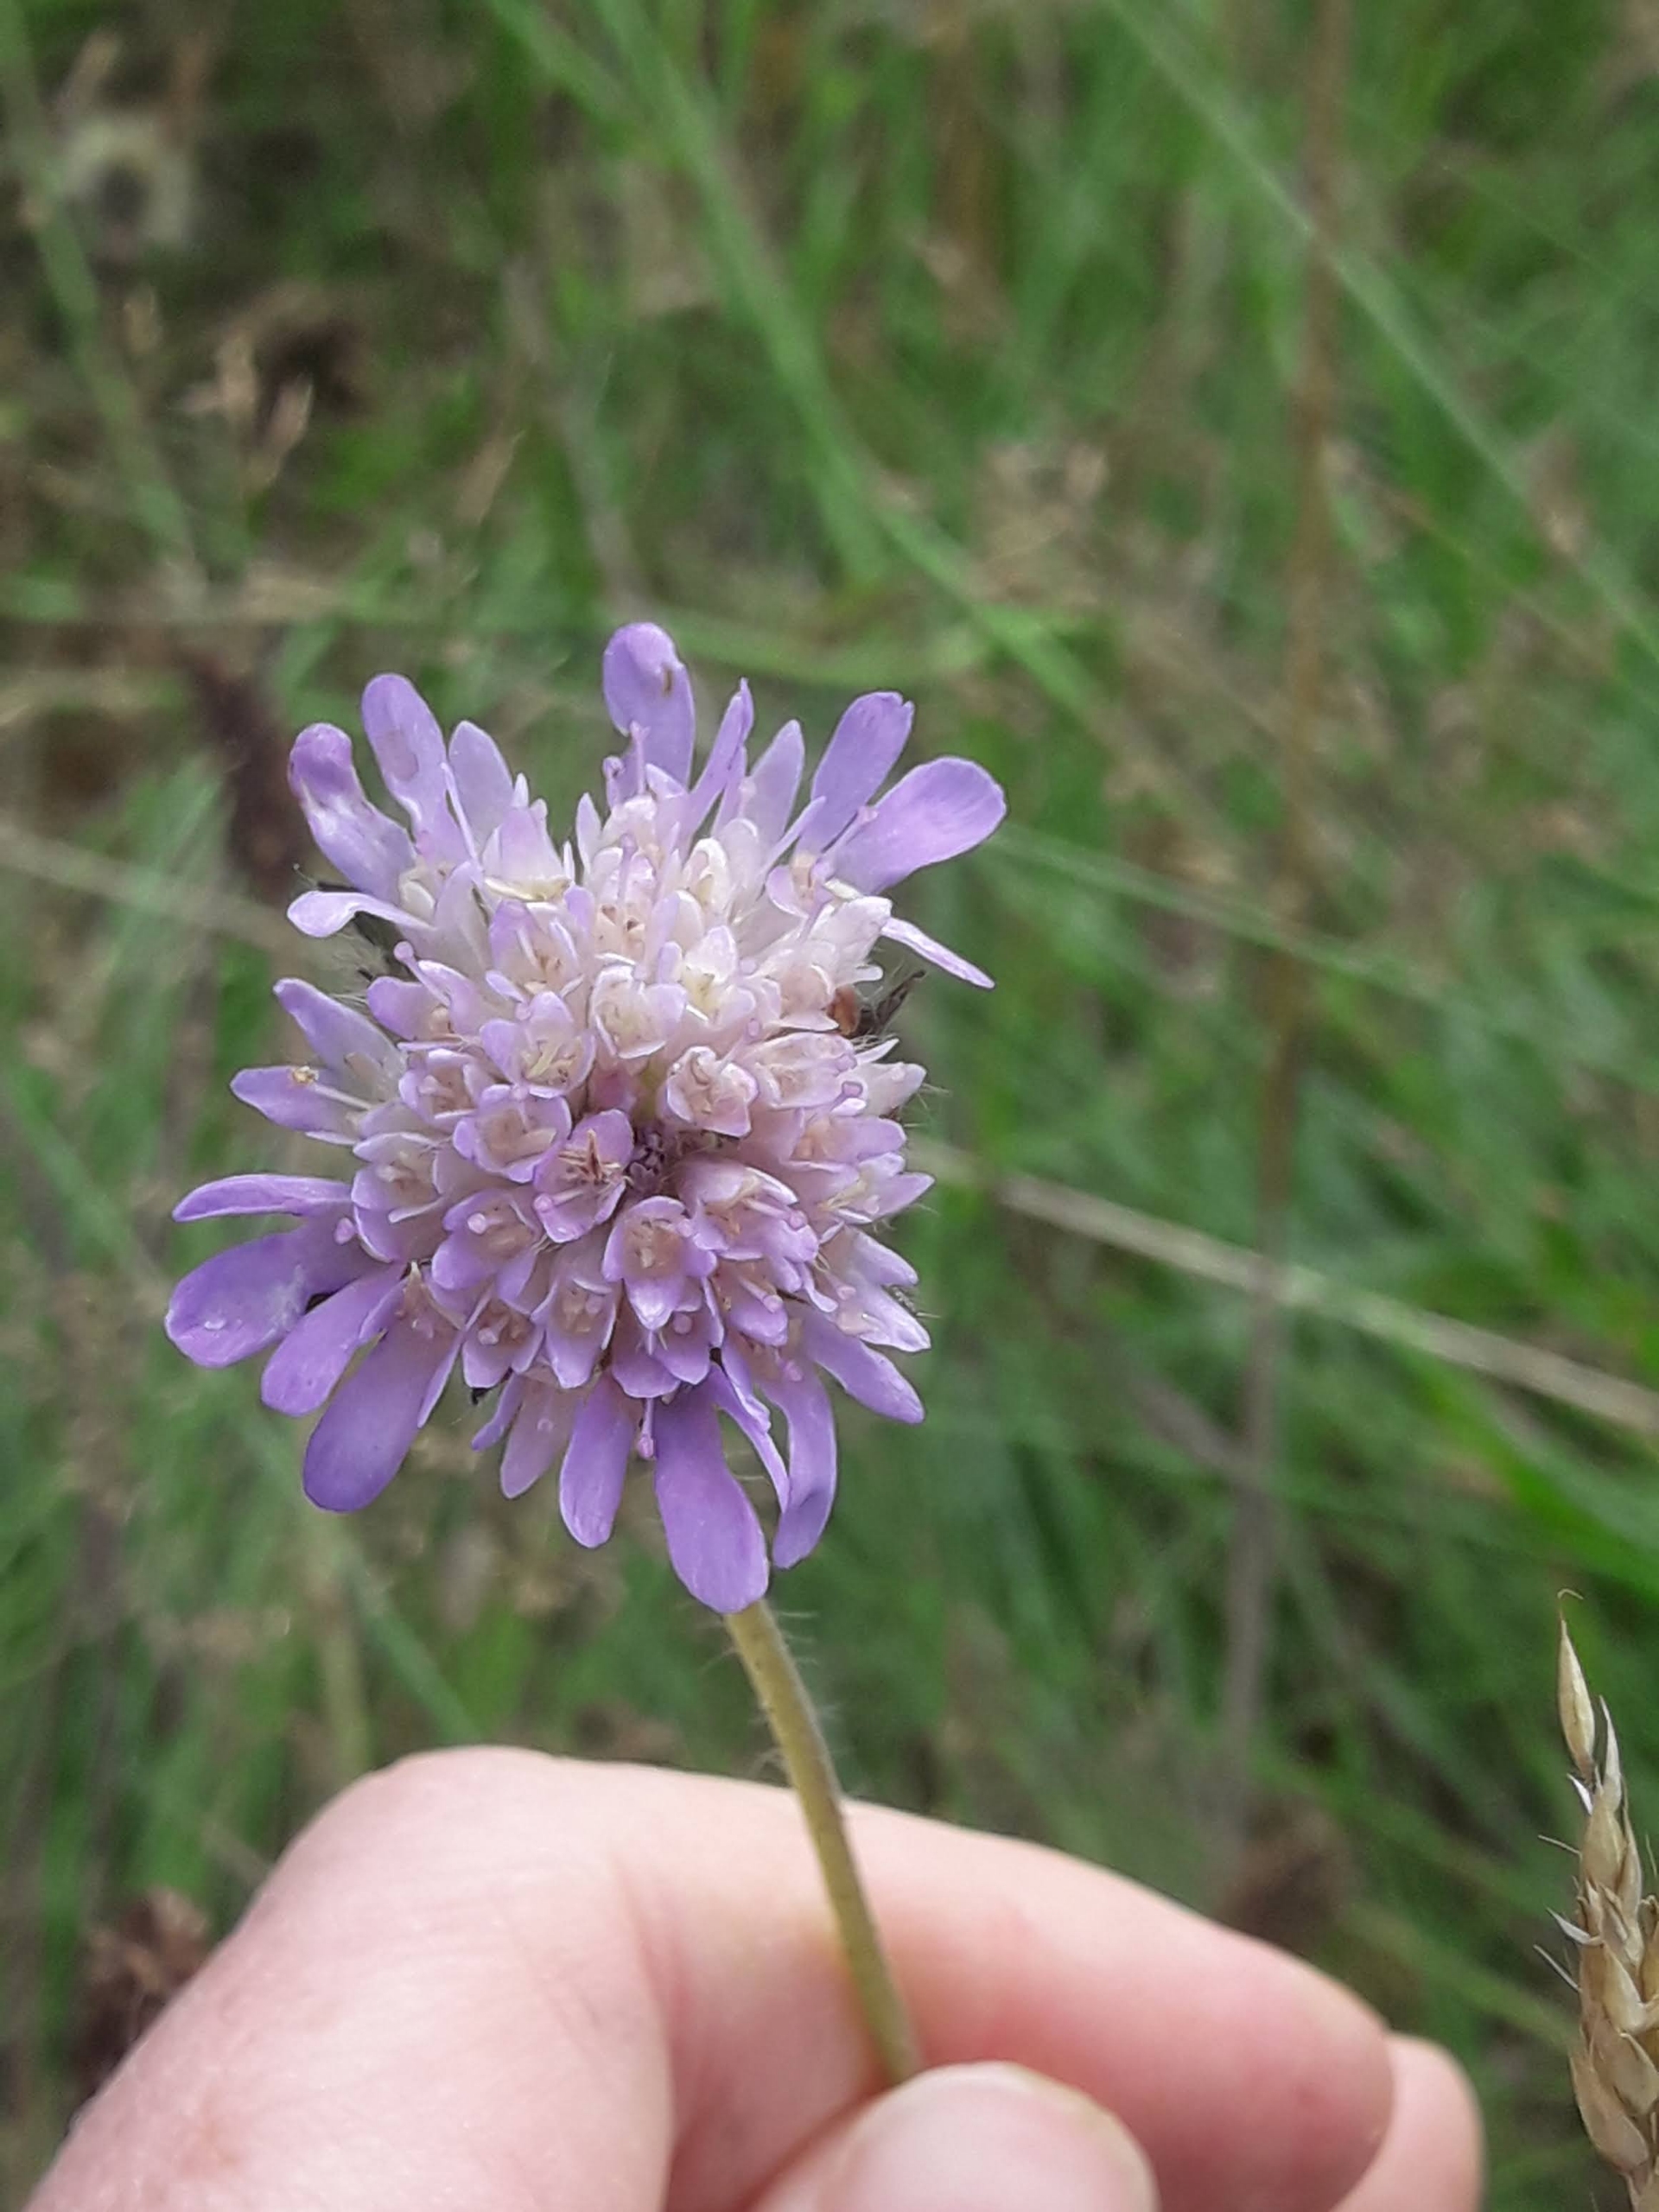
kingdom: Plantae
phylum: Tracheophyta
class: Magnoliopsida
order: Dipsacales
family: Caprifoliaceae
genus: Knautia
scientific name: Knautia arvensis
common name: Blåhat
